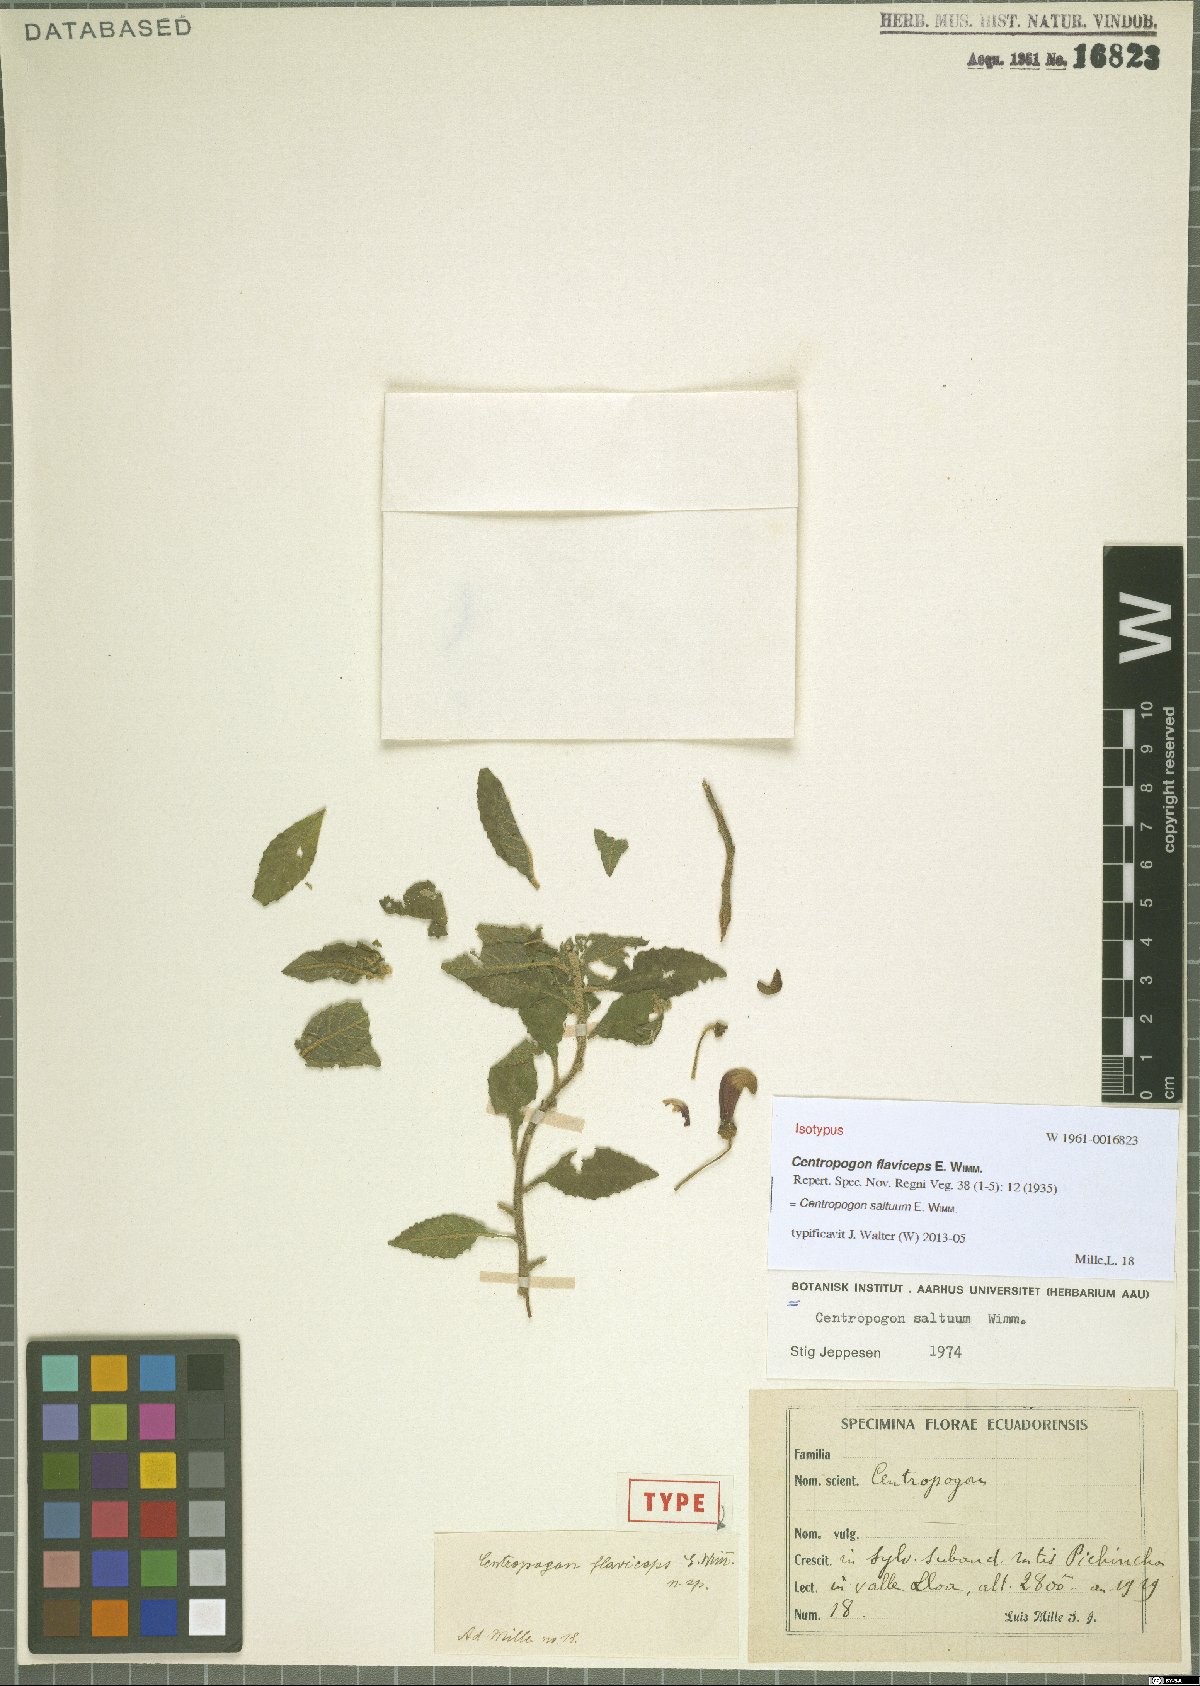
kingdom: Plantae
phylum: Tracheophyta
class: Magnoliopsida
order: Asterales
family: Campanulaceae
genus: Centropogon
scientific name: Centropogon saltuum
